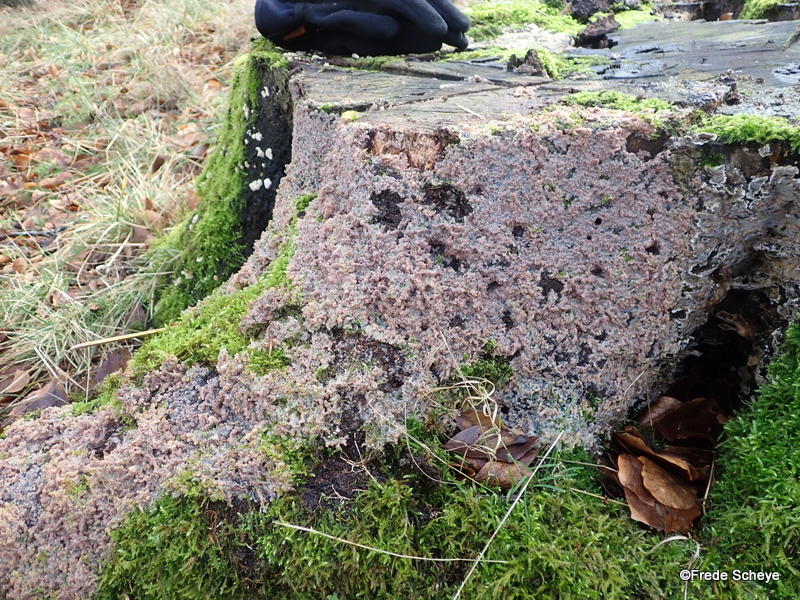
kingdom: Fungi
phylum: Basidiomycota
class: Agaricomycetes
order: Polyporales
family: Meruliaceae
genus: Phlebia
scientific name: Phlebia radiata
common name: stråle-åresvamp
